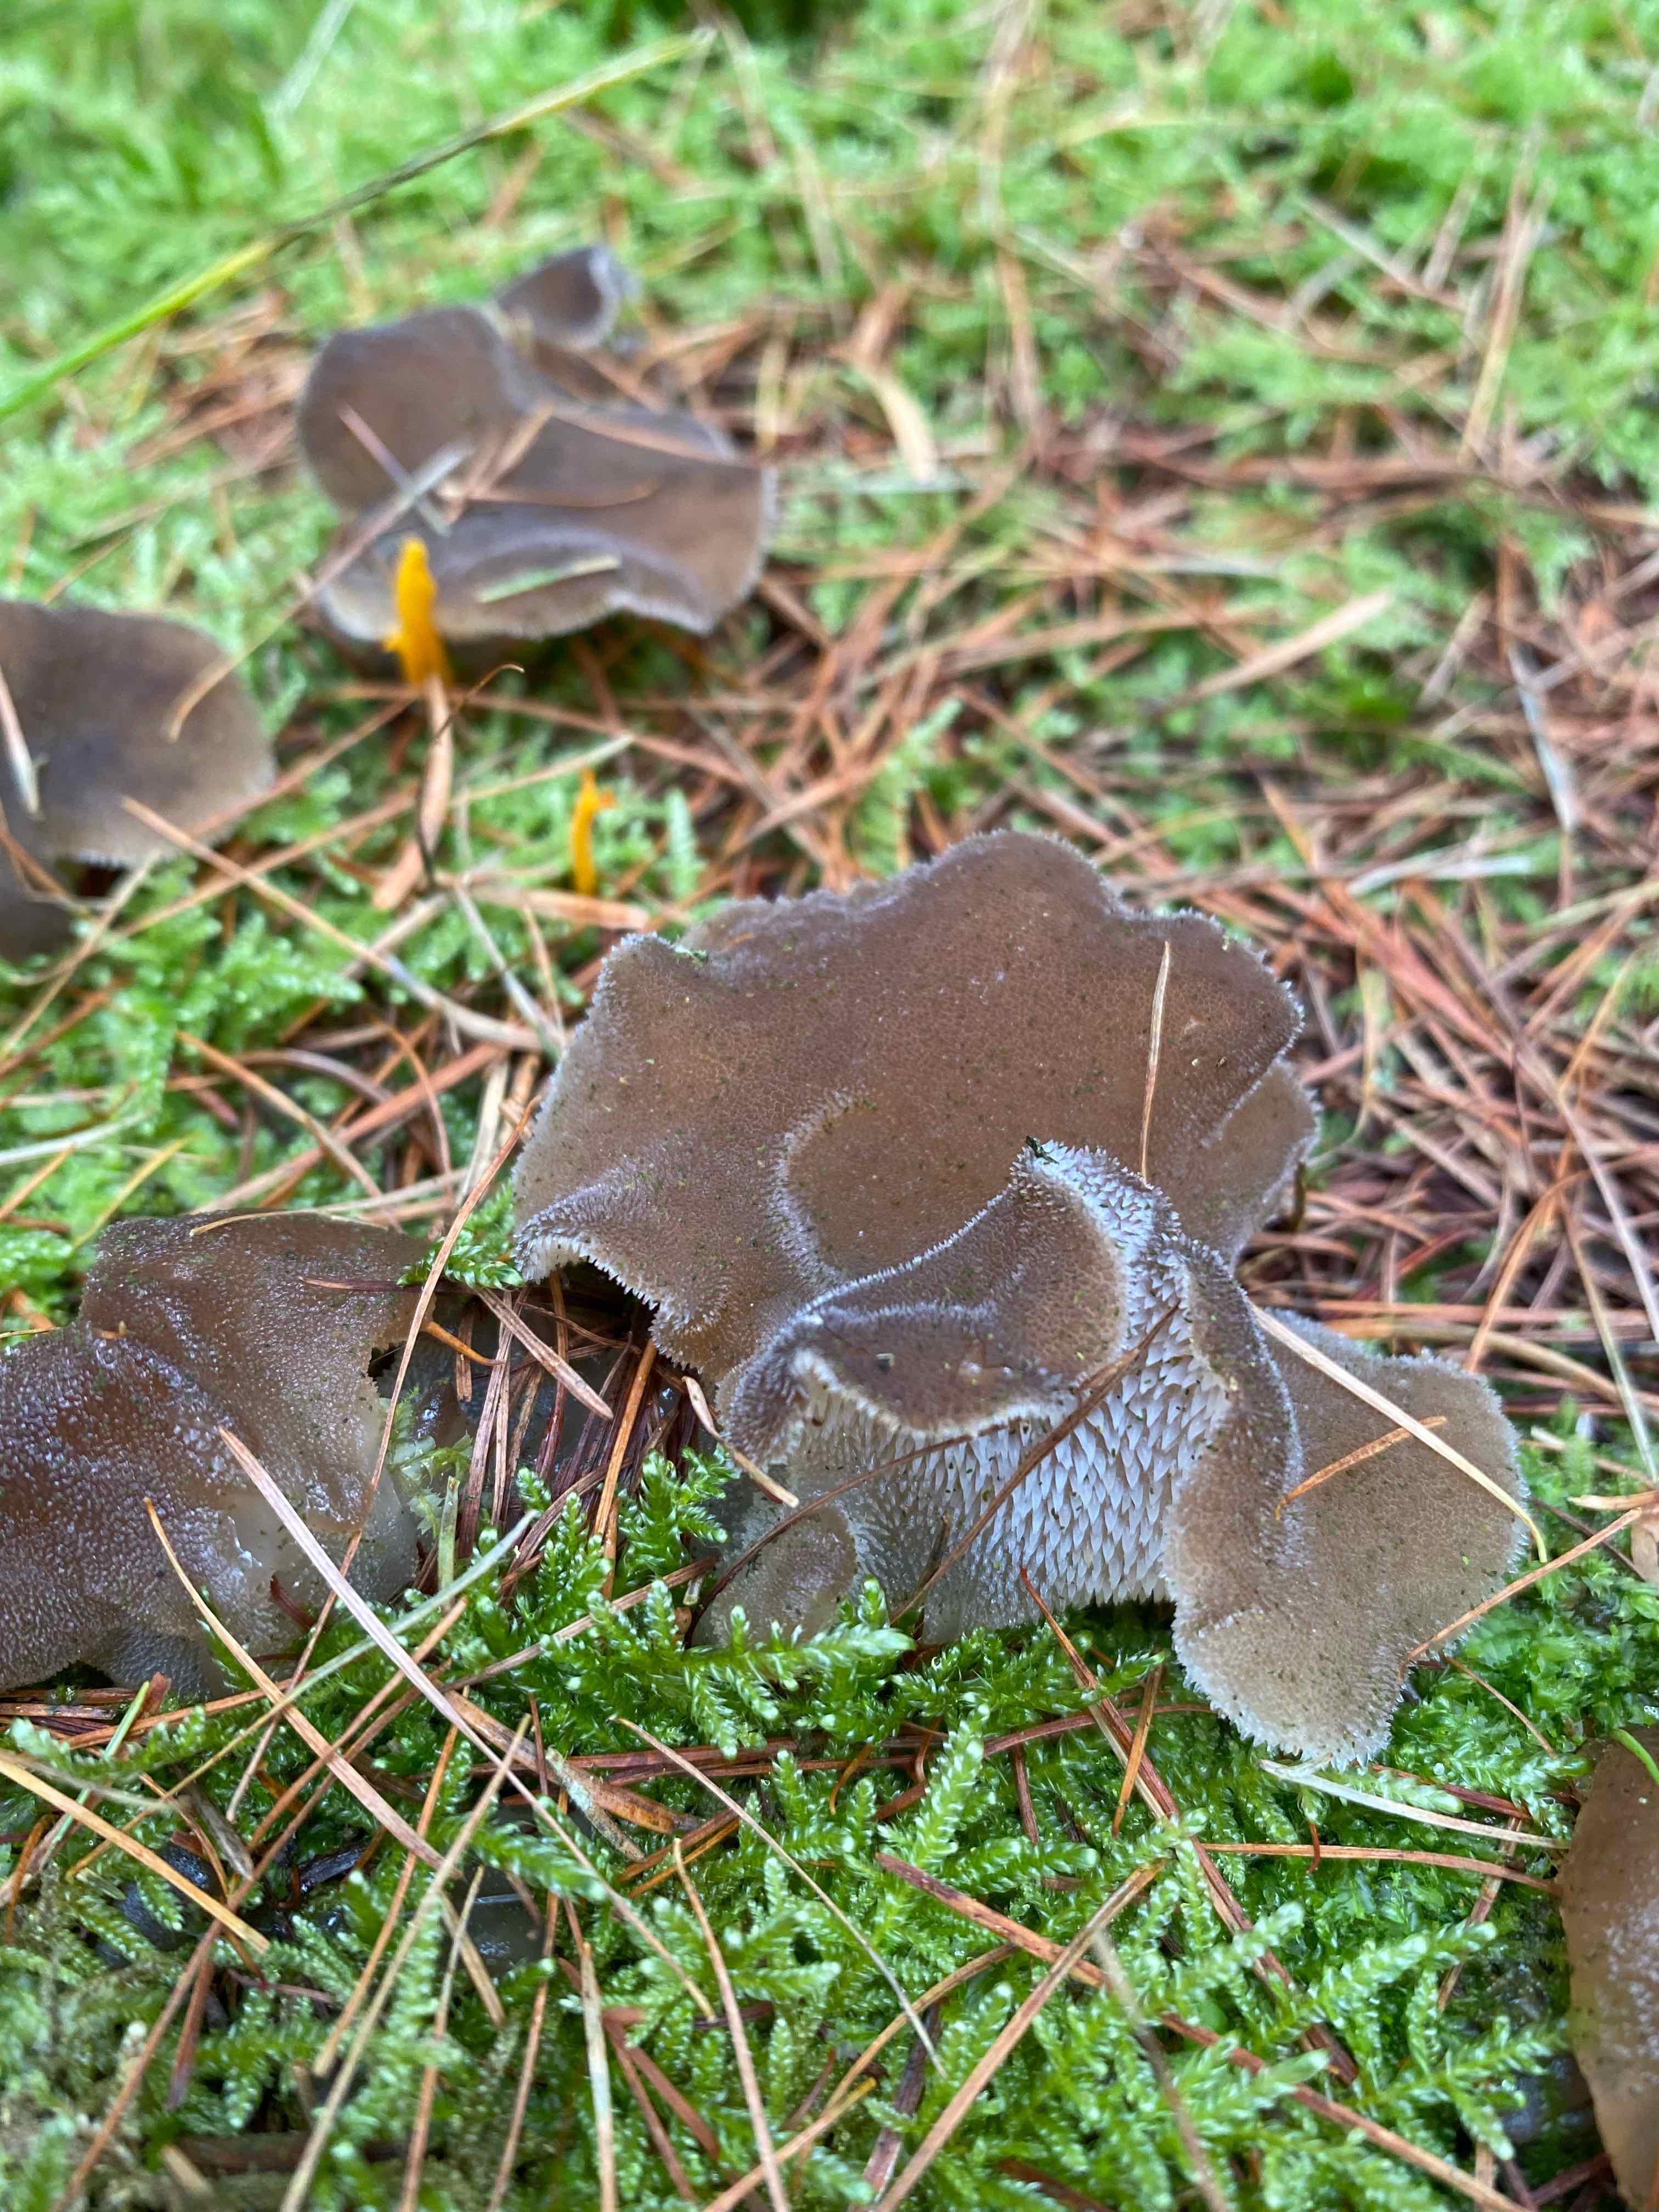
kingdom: Fungi
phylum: Basidiomycota
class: Agaricomycetes
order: Auriculariales
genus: Pseudohydnum
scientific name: Pseudohydnum gelatinosum
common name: bævretand
